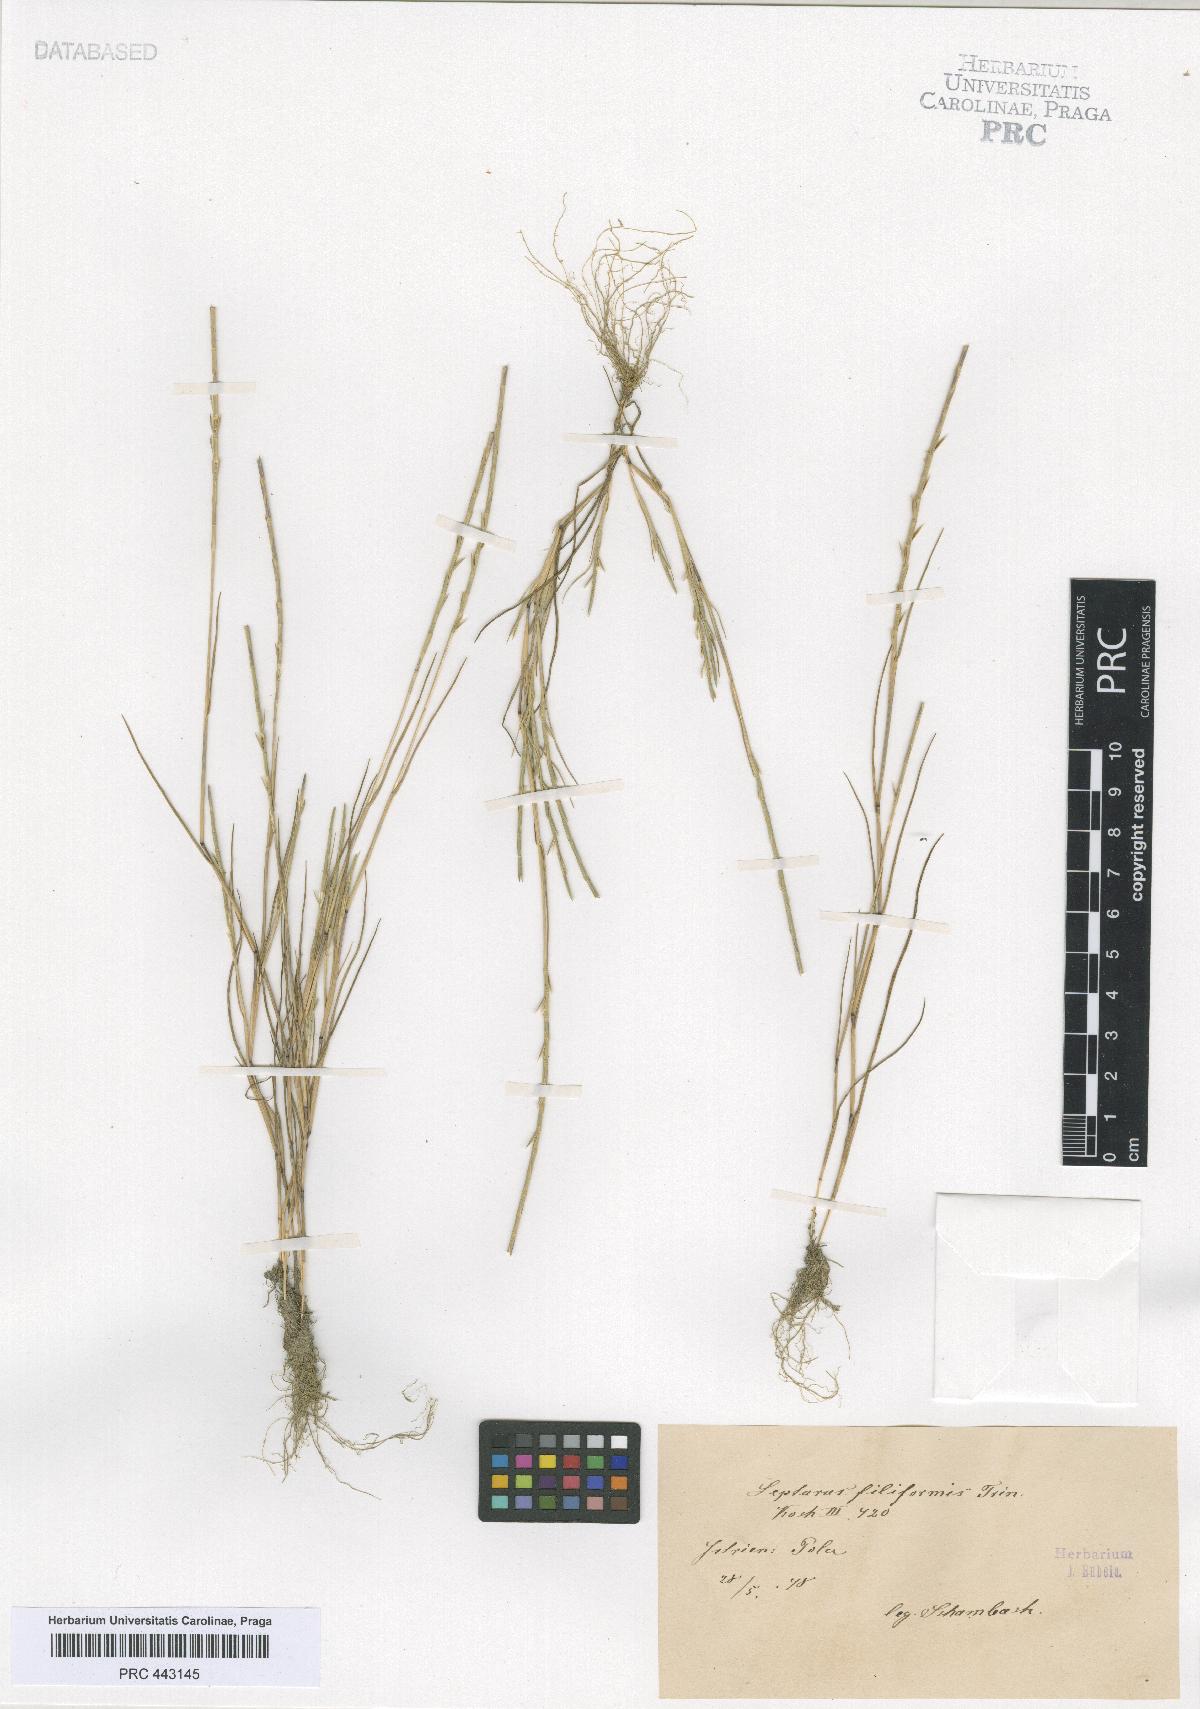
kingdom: Plantae
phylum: Tracheophyta
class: Liliopsida
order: Poales
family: Poaceae
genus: Parapholis
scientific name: Parapholis filiformis
